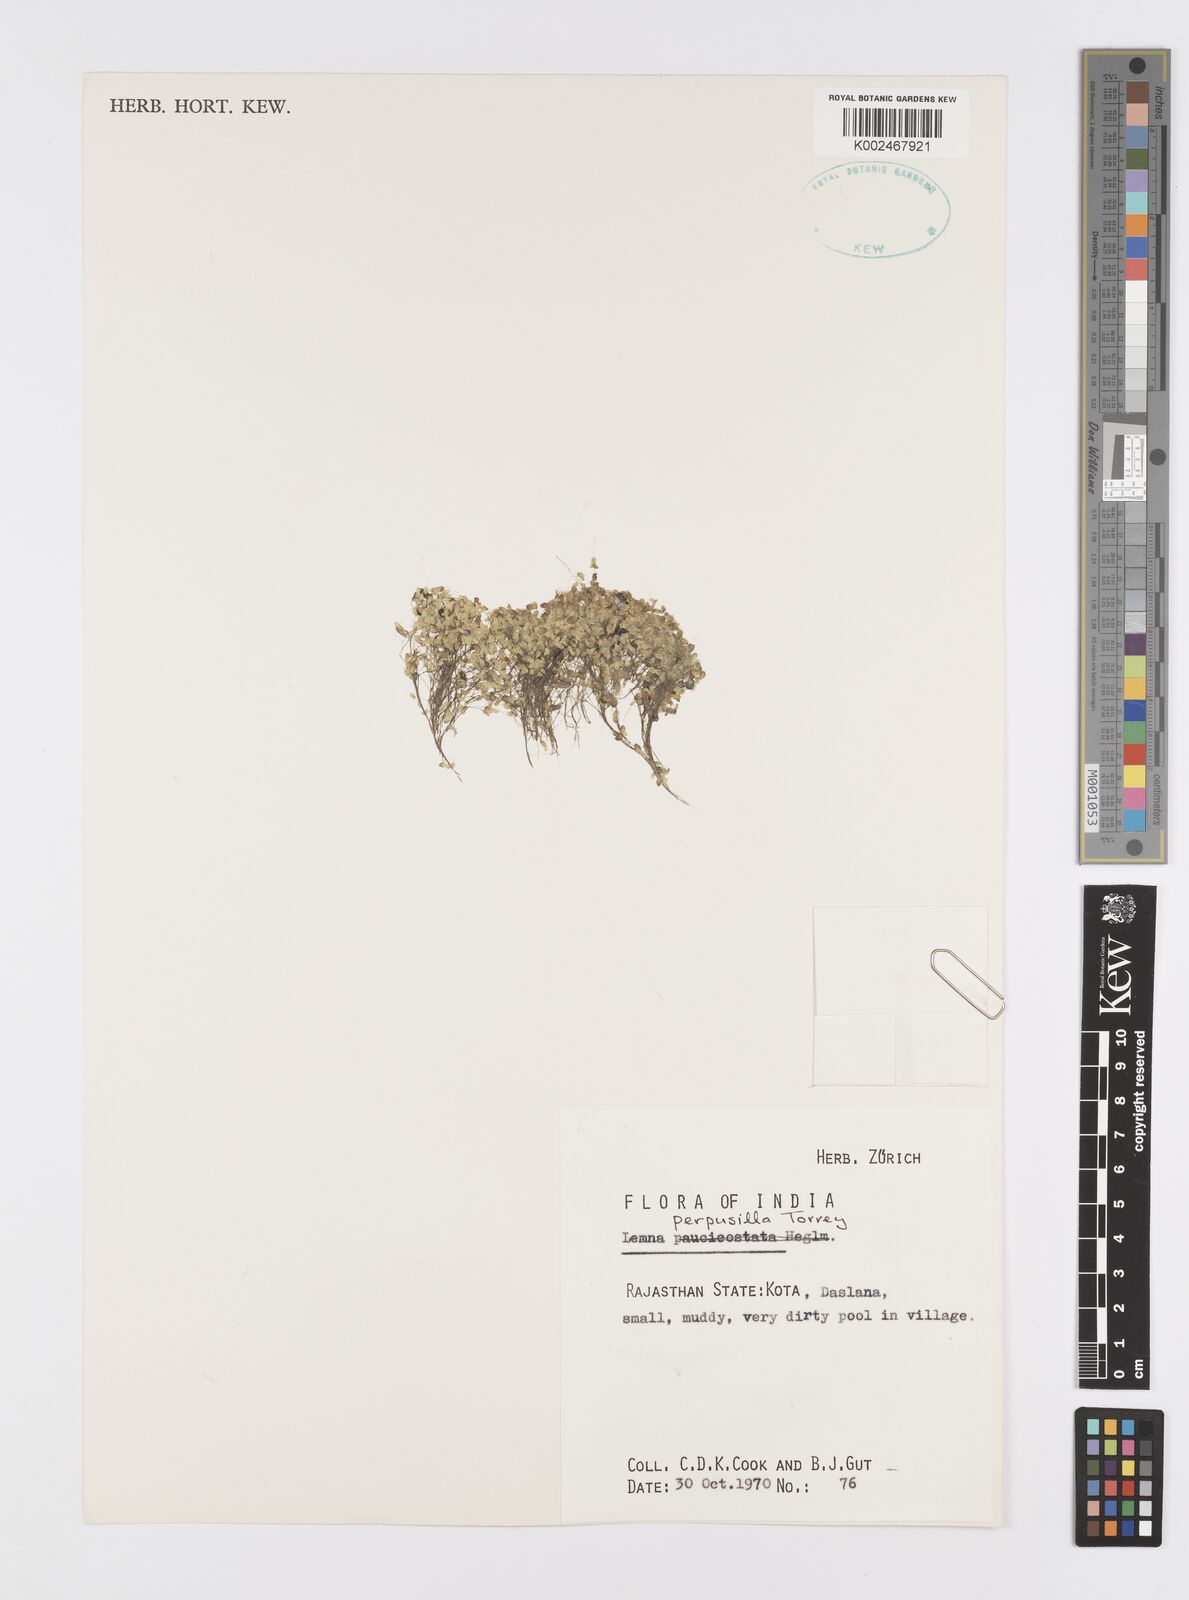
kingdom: Plantae
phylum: Tracheophyta
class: Liliopsida
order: Alismatales
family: Araceae
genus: Lemna
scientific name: Lemna perpusilla
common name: Duckweed
